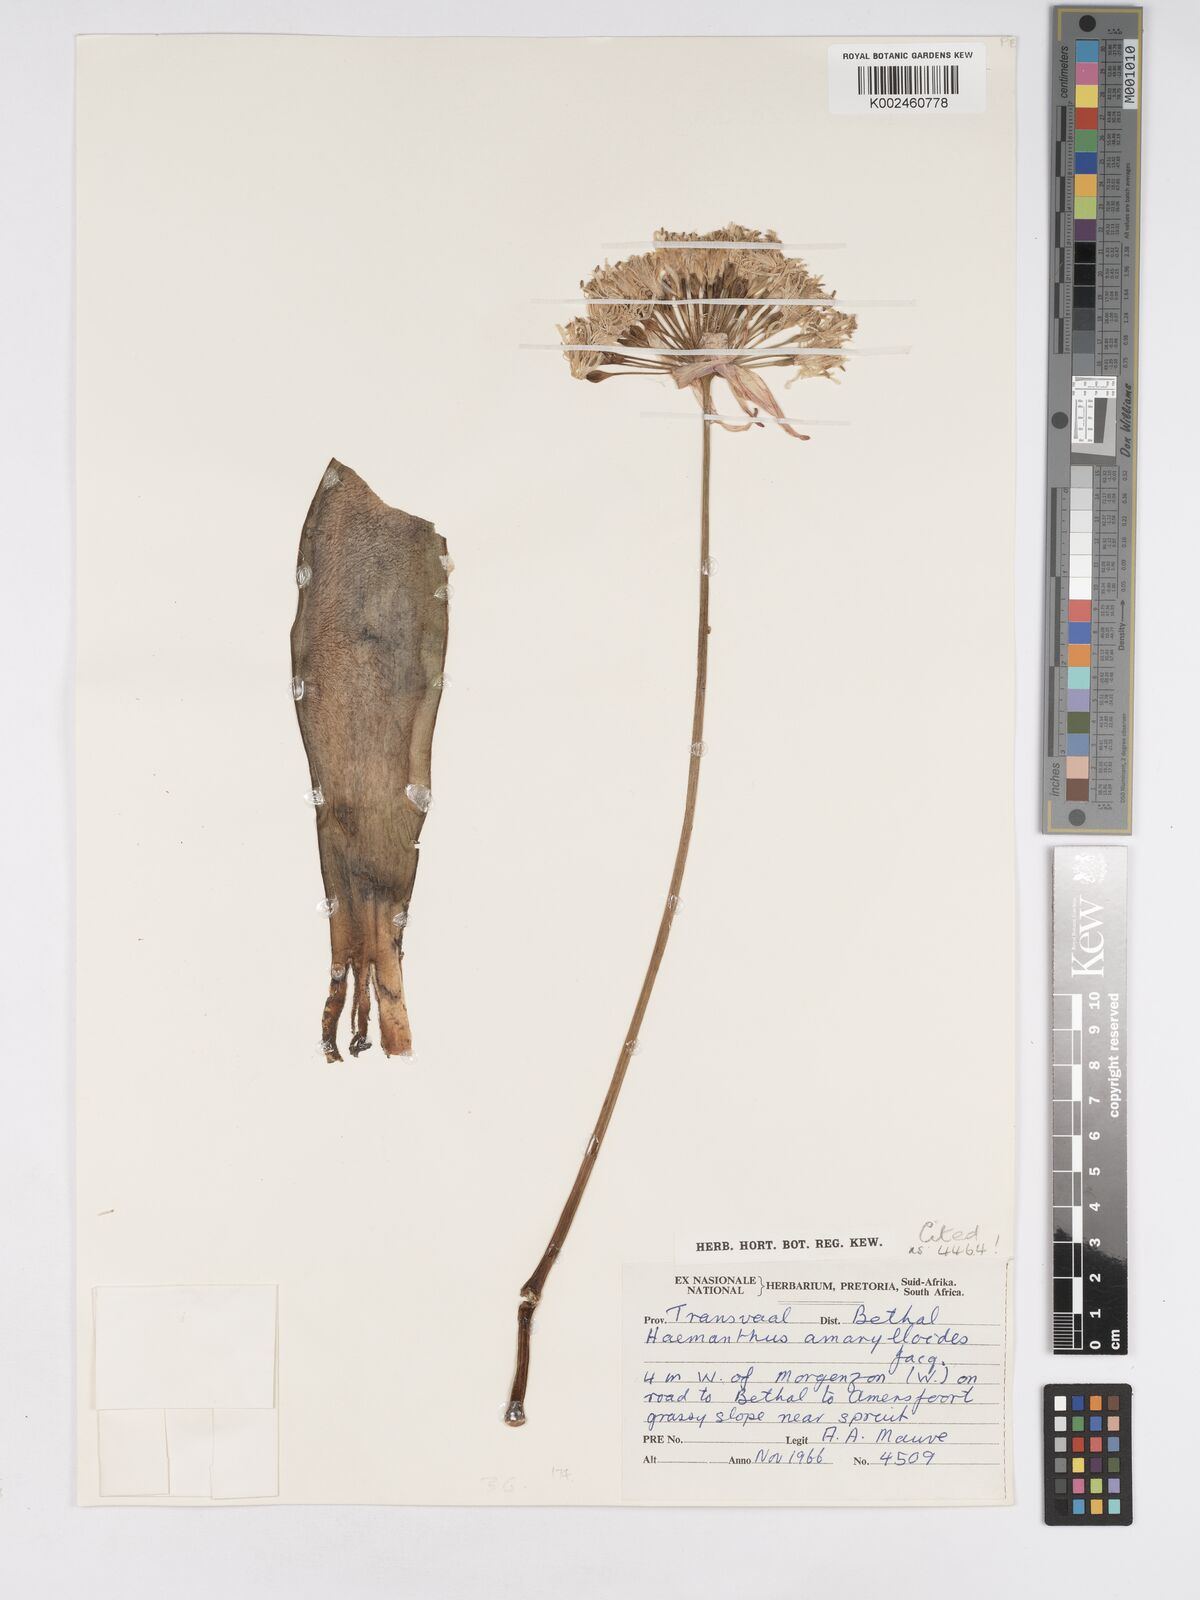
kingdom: Plantae
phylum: Tracheophyta
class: Liliopsida
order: Asparagales
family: Amaryllidaceae
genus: Haemanthus
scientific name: Haemanthus montanus
